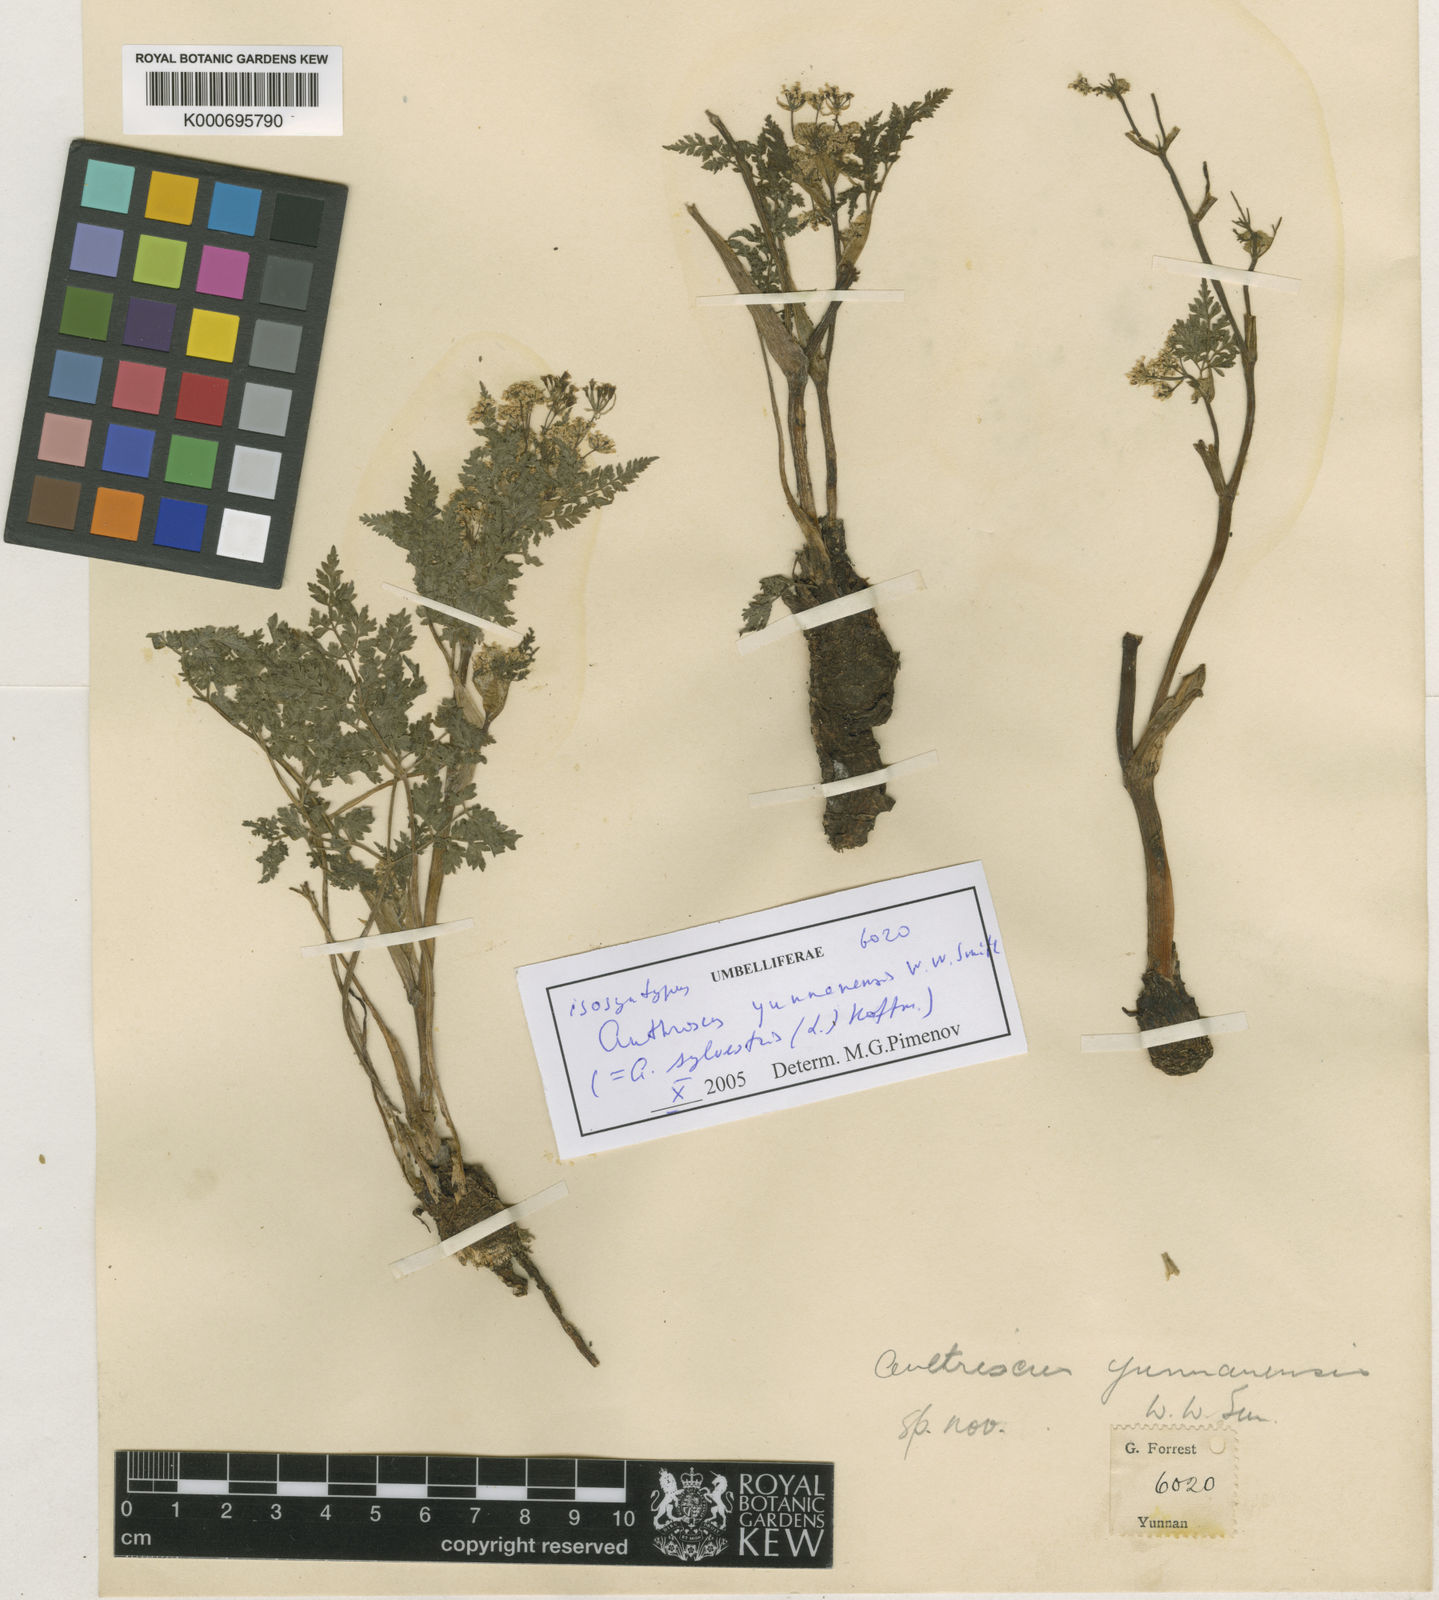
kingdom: Plantae
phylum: Tracheophyta
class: Magnoliopsida
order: Apiales
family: Apiaceae
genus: Anthriscus
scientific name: Anthriscus sylvestris
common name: Cow parsley
